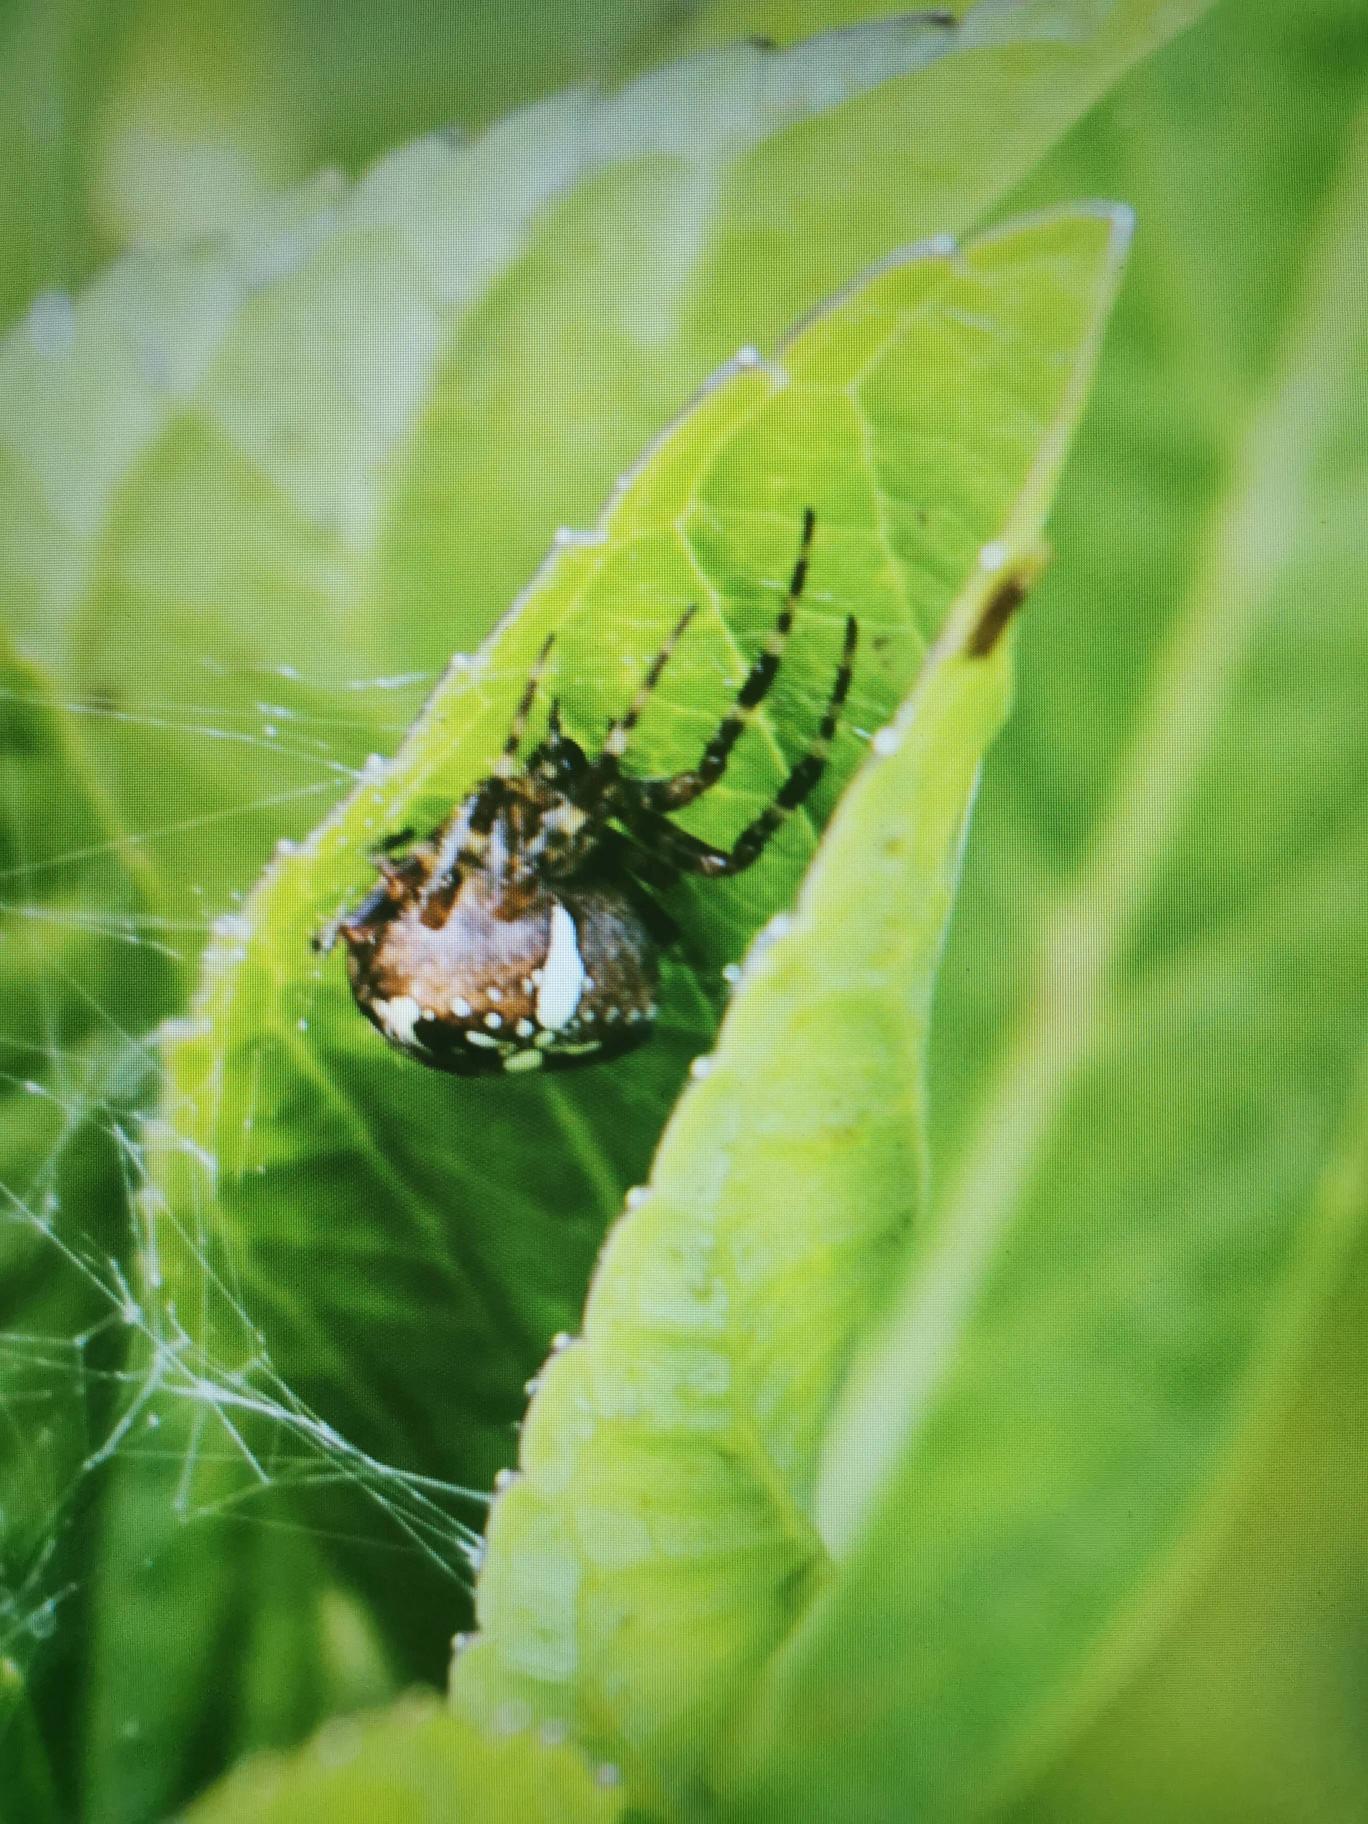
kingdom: Animalia
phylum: Arthropoda
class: Arachnida
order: Araneae
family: Araneidae
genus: Araneus
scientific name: Araneus diadematus
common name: Korsedderkop
